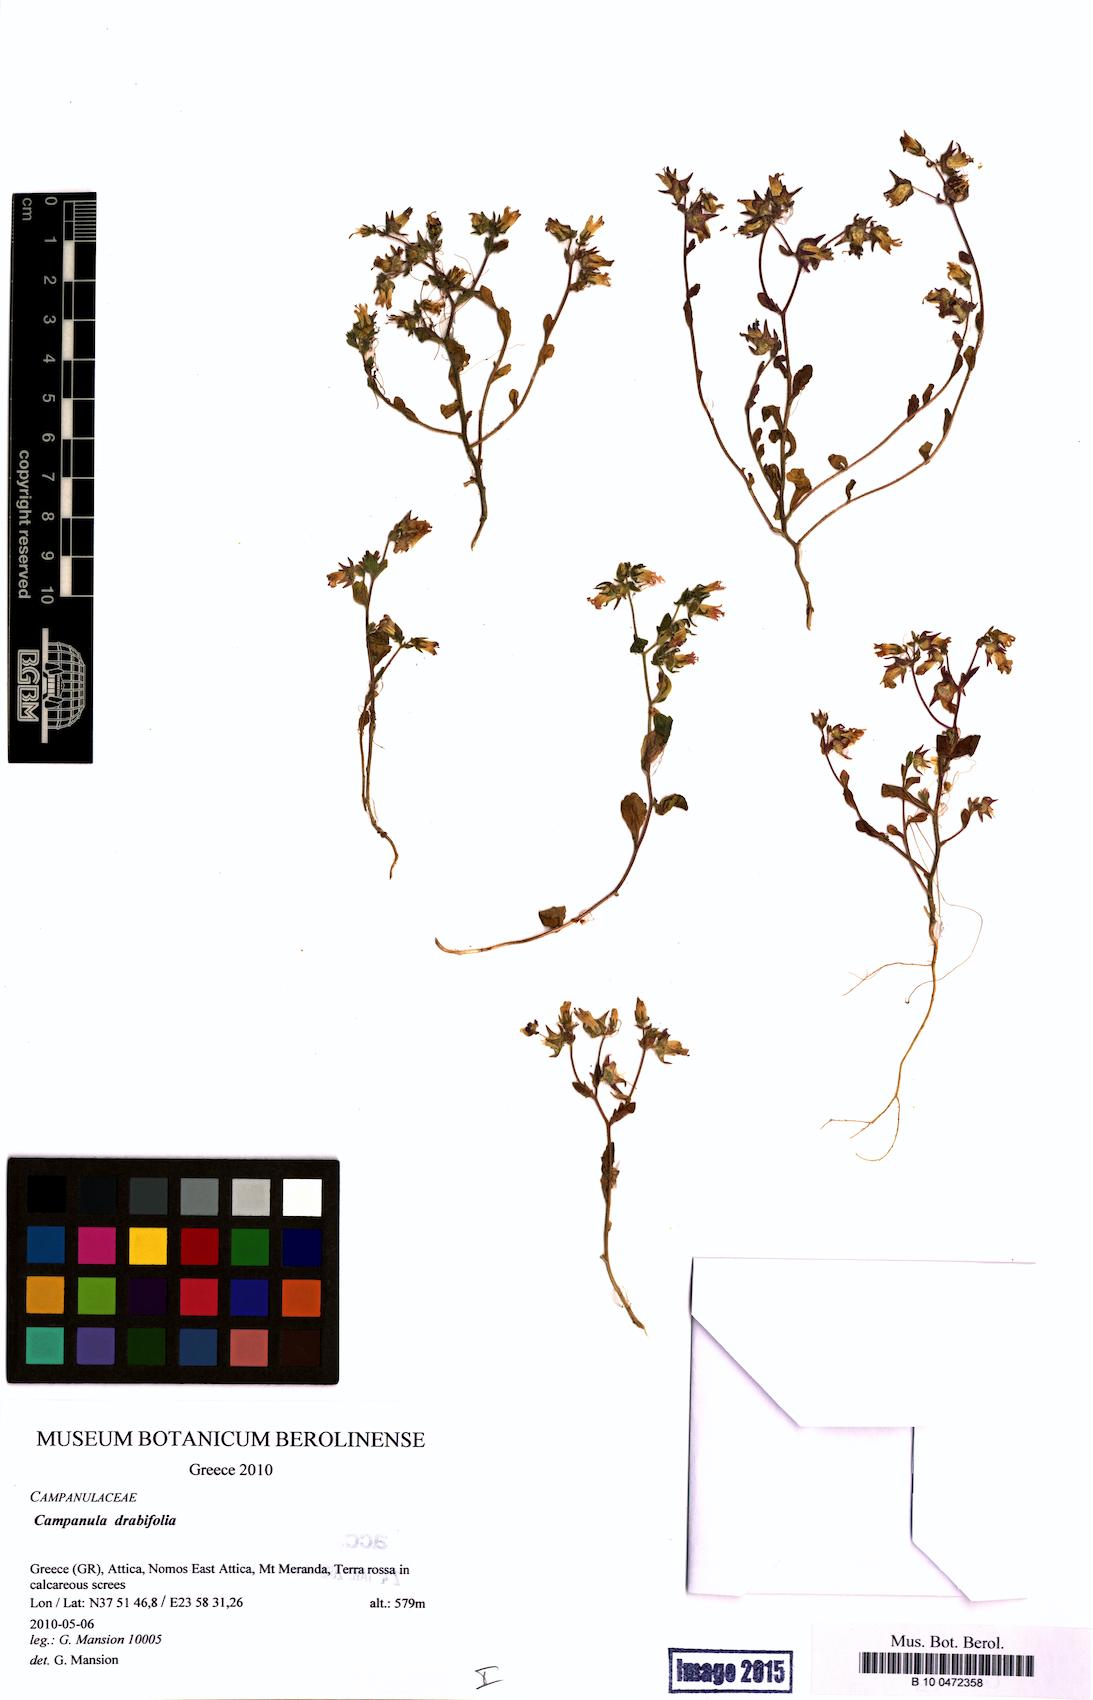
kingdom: Plantae
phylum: Tracheophyta
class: Magnoliopsida
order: Asterales
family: Campanulaceae
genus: Campanula
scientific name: Campanula drabifolia
